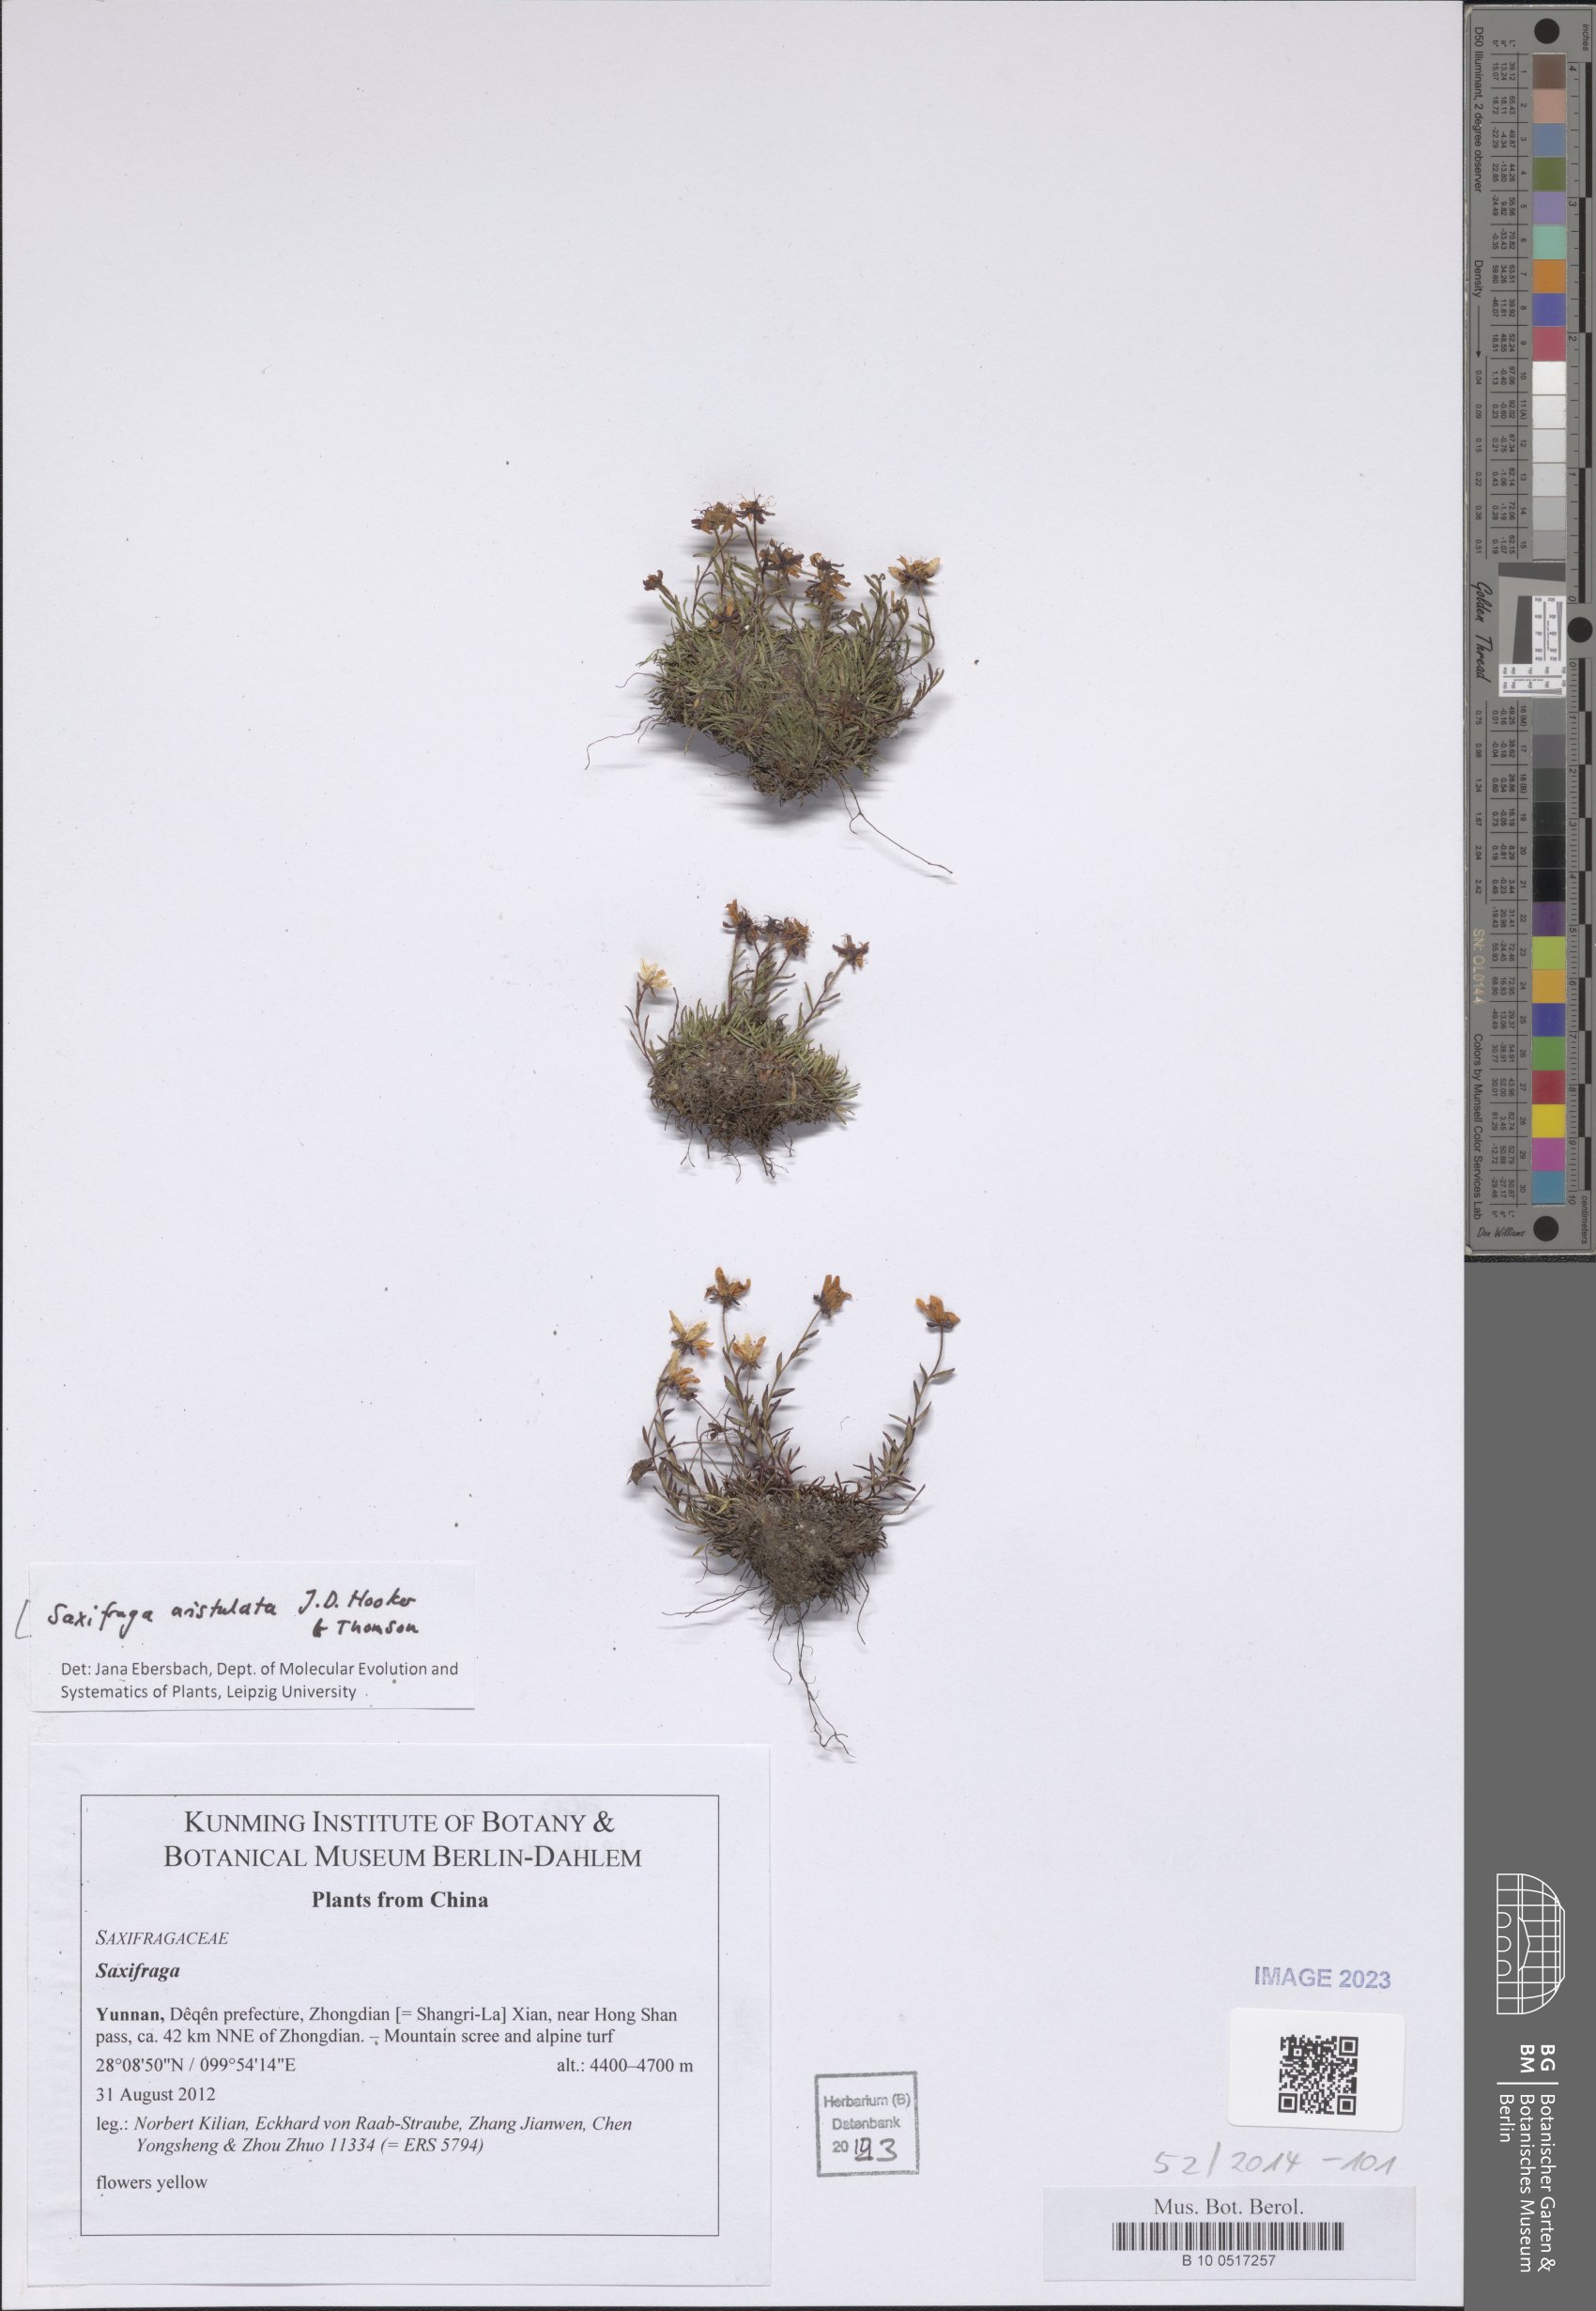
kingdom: Plantae
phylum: Tracheophyta
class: Magnoliopsida
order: Saxifragales
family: Saxifragaceae
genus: Saxifraga
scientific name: Saxifraga aristulata
